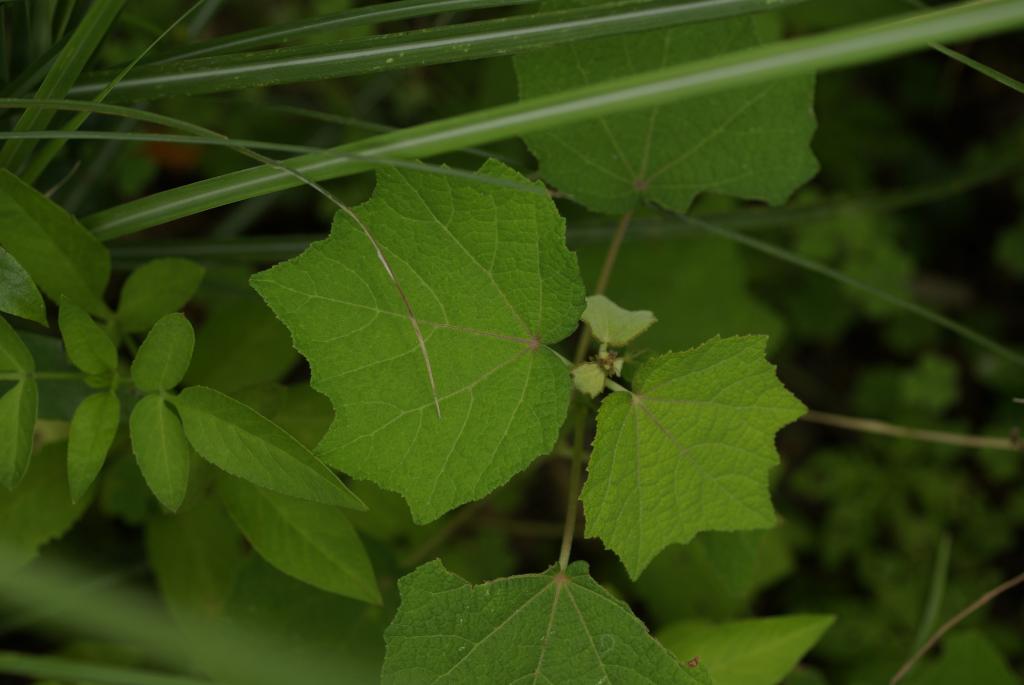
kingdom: Plantae
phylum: Tracheophyta
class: Magnoliopsida
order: Malvales
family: Malvaceae
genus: Urena
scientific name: Urena lobata
